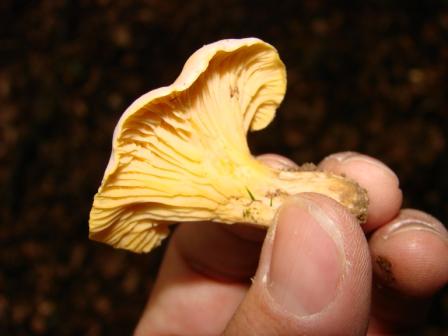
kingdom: Fungi
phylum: Basidiomycota
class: Agaricomycetes
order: Cantharellales
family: Hydnaceae
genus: Cantharellus
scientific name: Cantharellus cibarius
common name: almindelig kantarel
